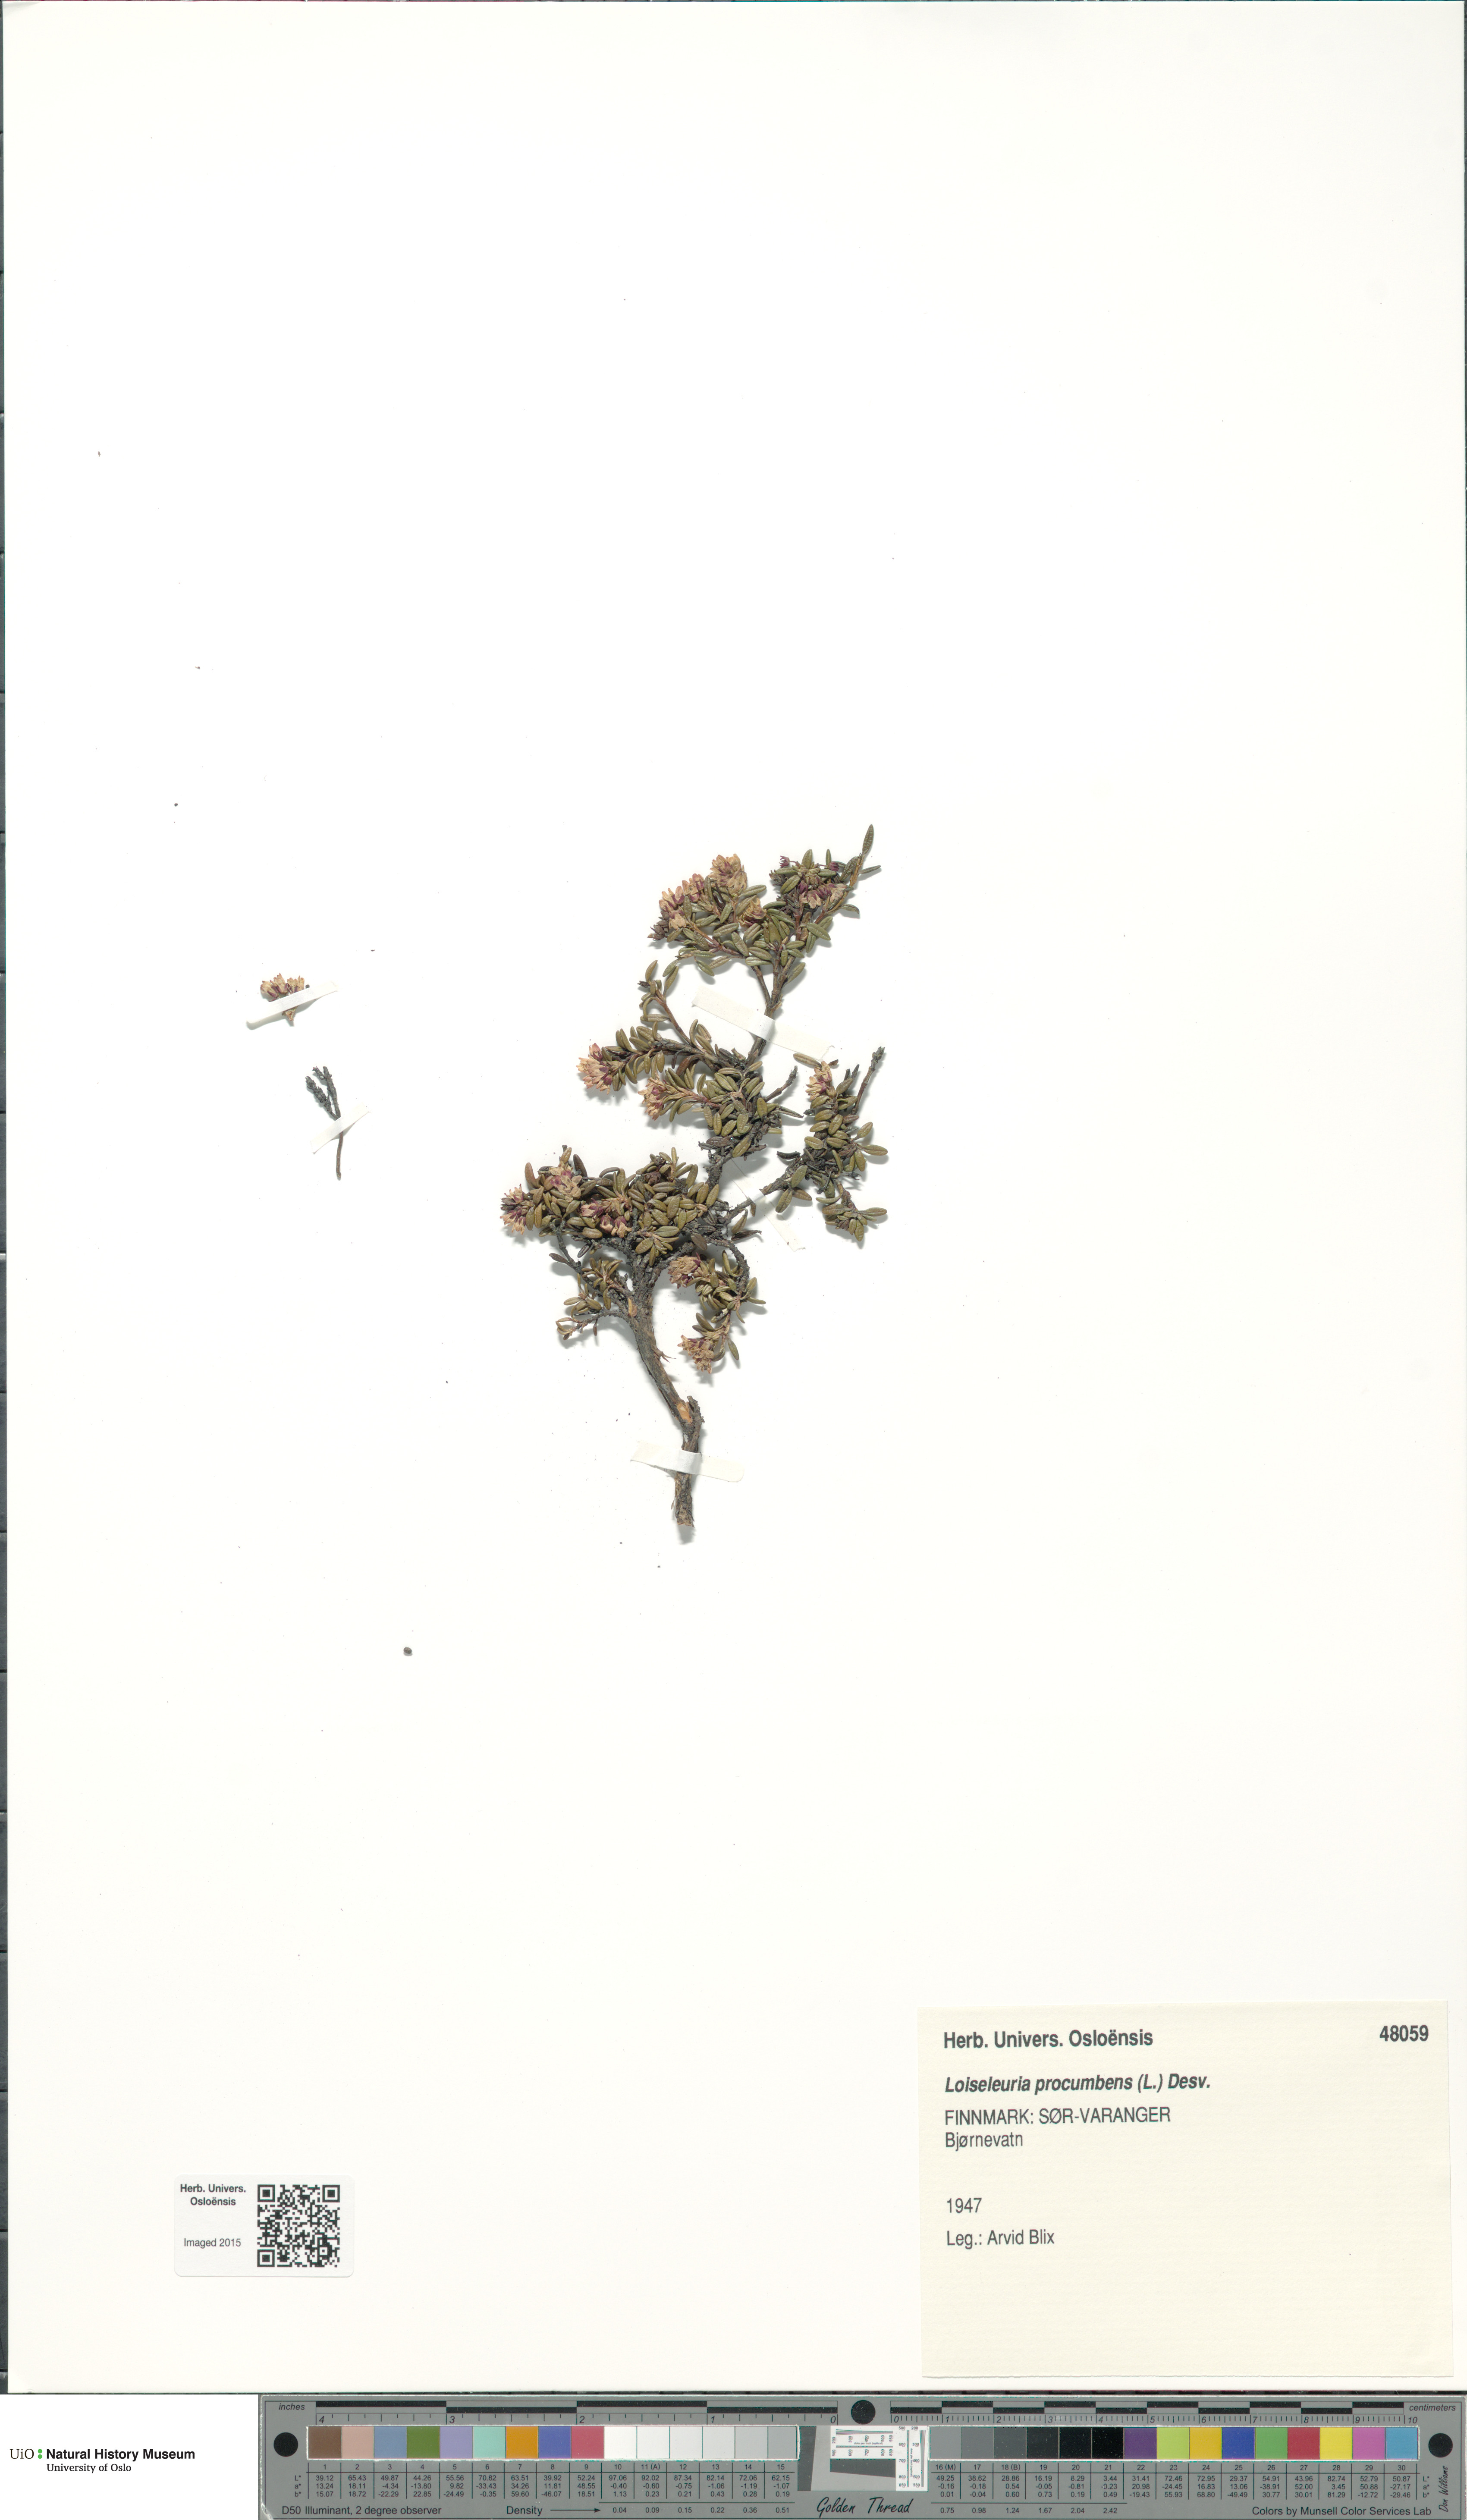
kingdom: Plantae
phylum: Tracheophyta
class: Magnoliopsida
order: Ericales
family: Ericaceae
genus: Kalmia
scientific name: Kalmia procumbens
